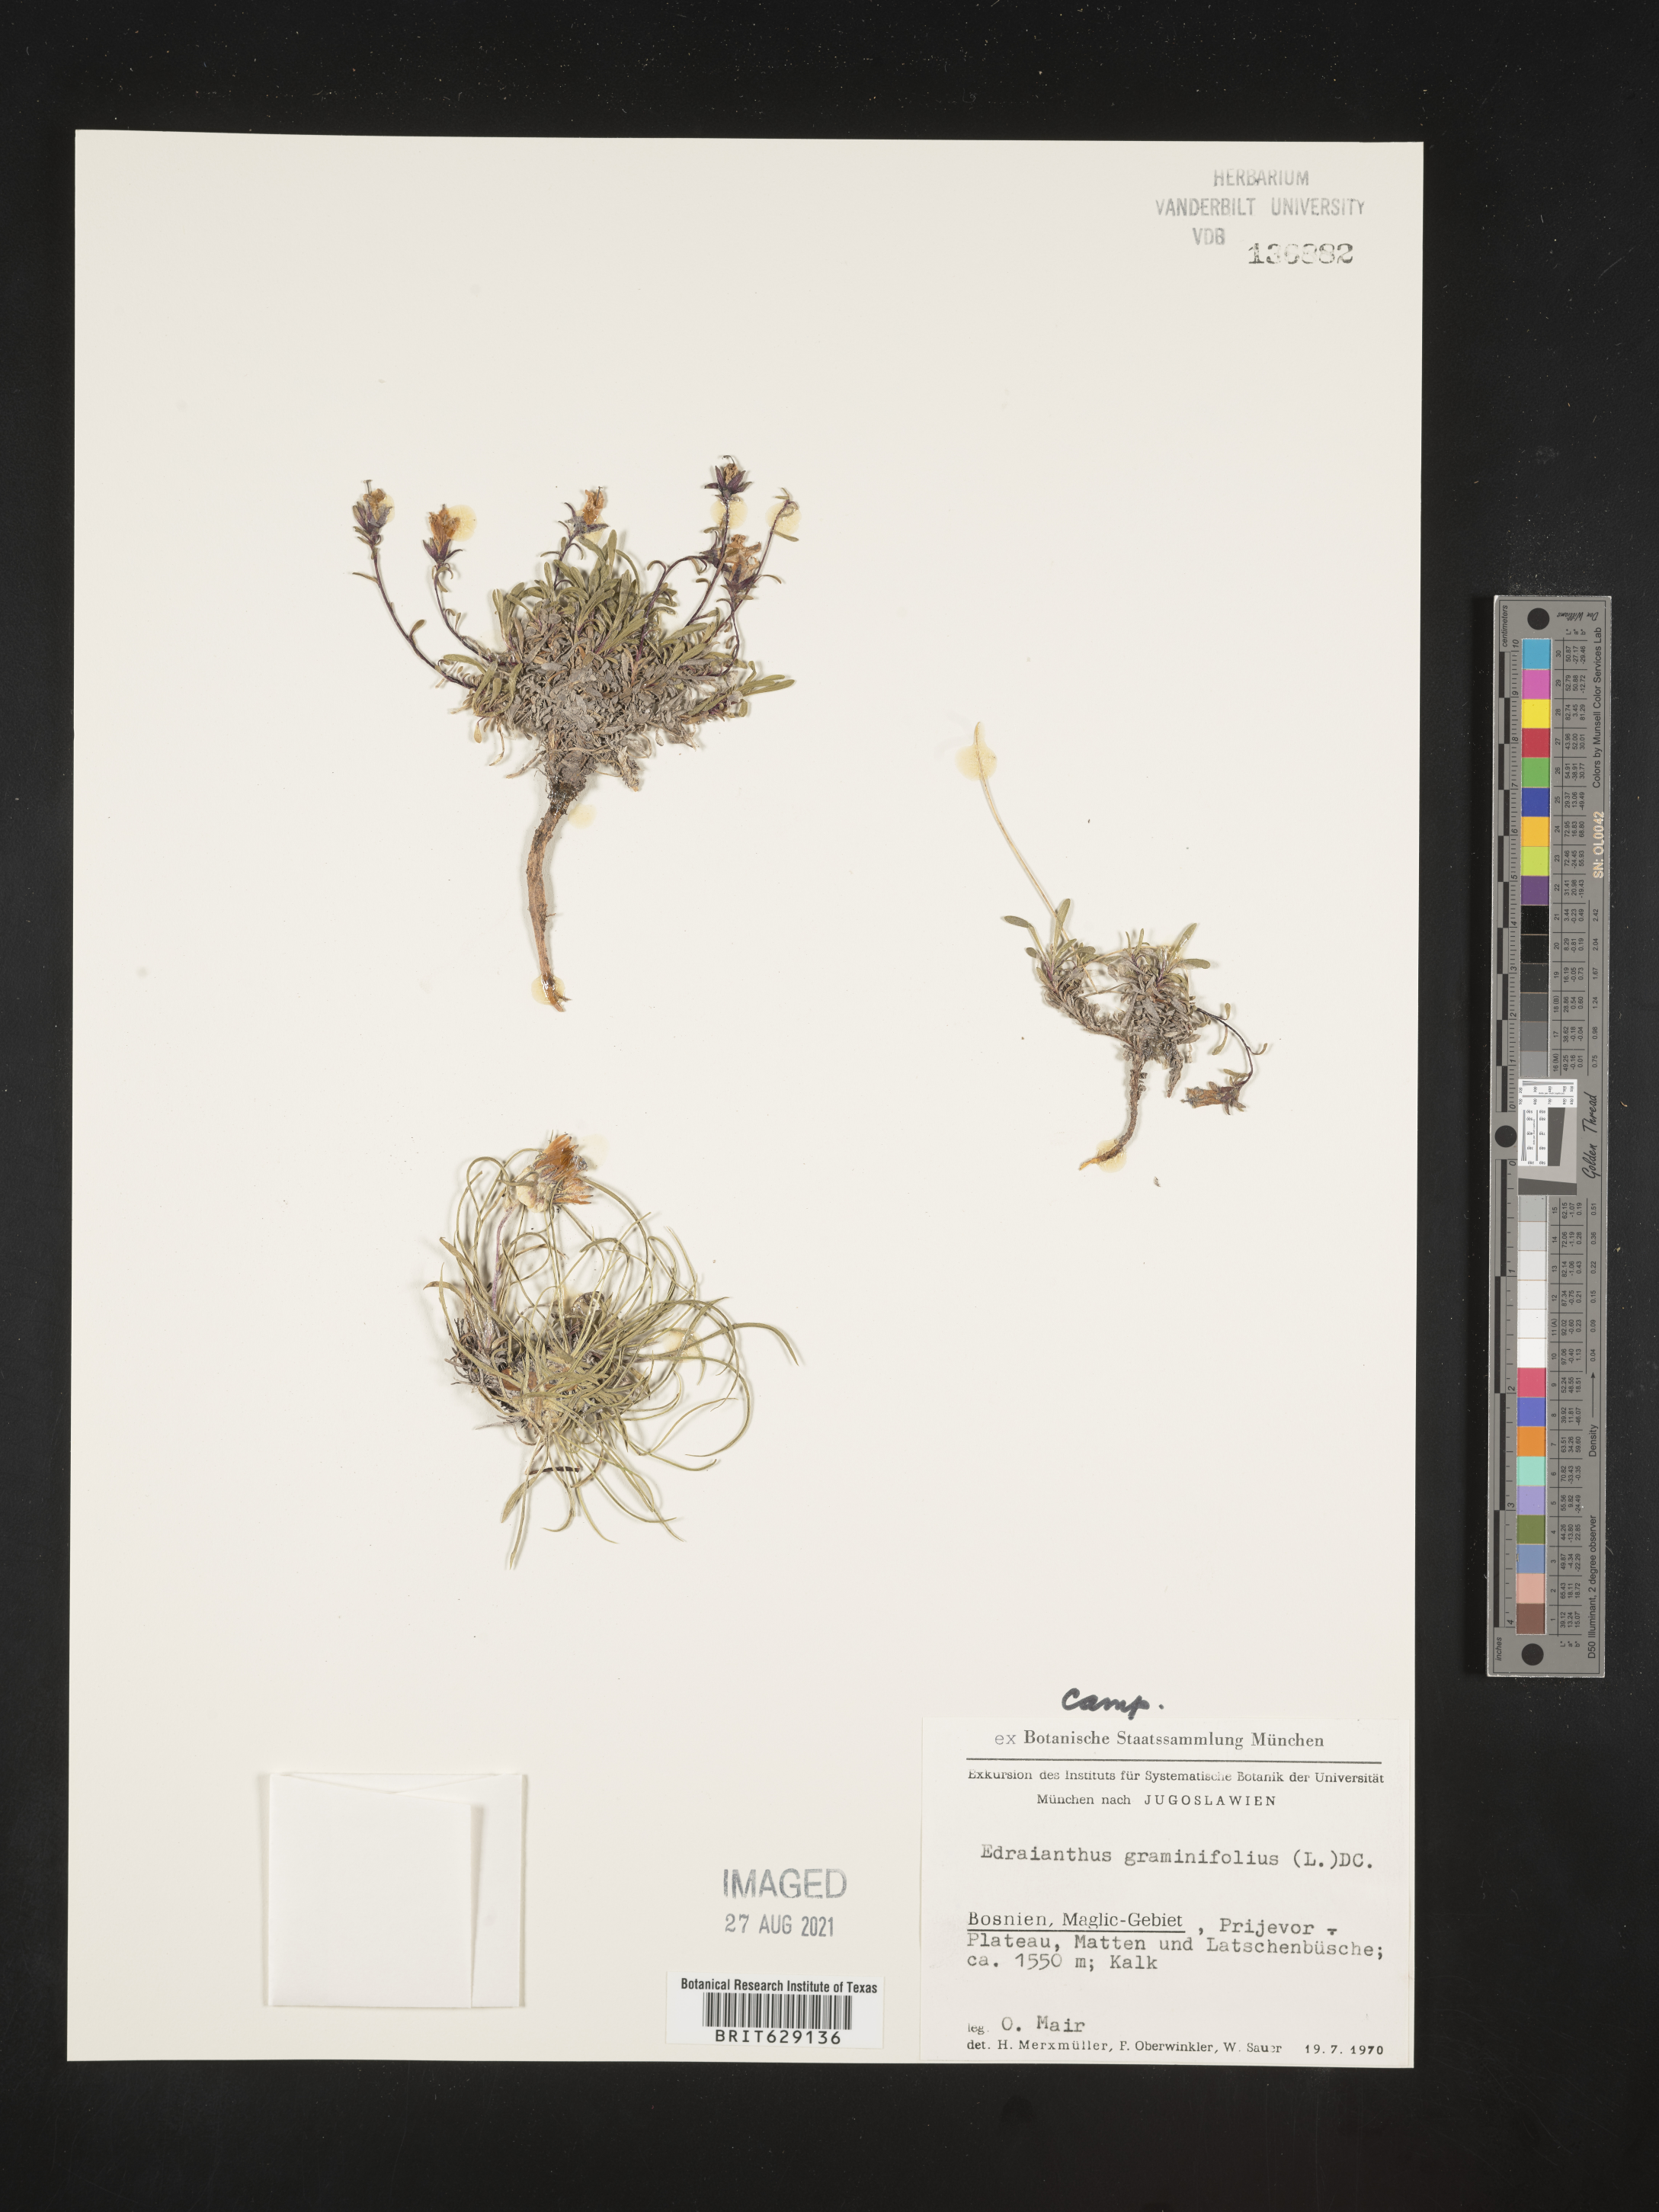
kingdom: Plantae
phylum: Tracheophyta
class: Magnoliopsida
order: Asterales
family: Campanulaceae
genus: Edraianthus
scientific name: Edraianthus graminifolius
